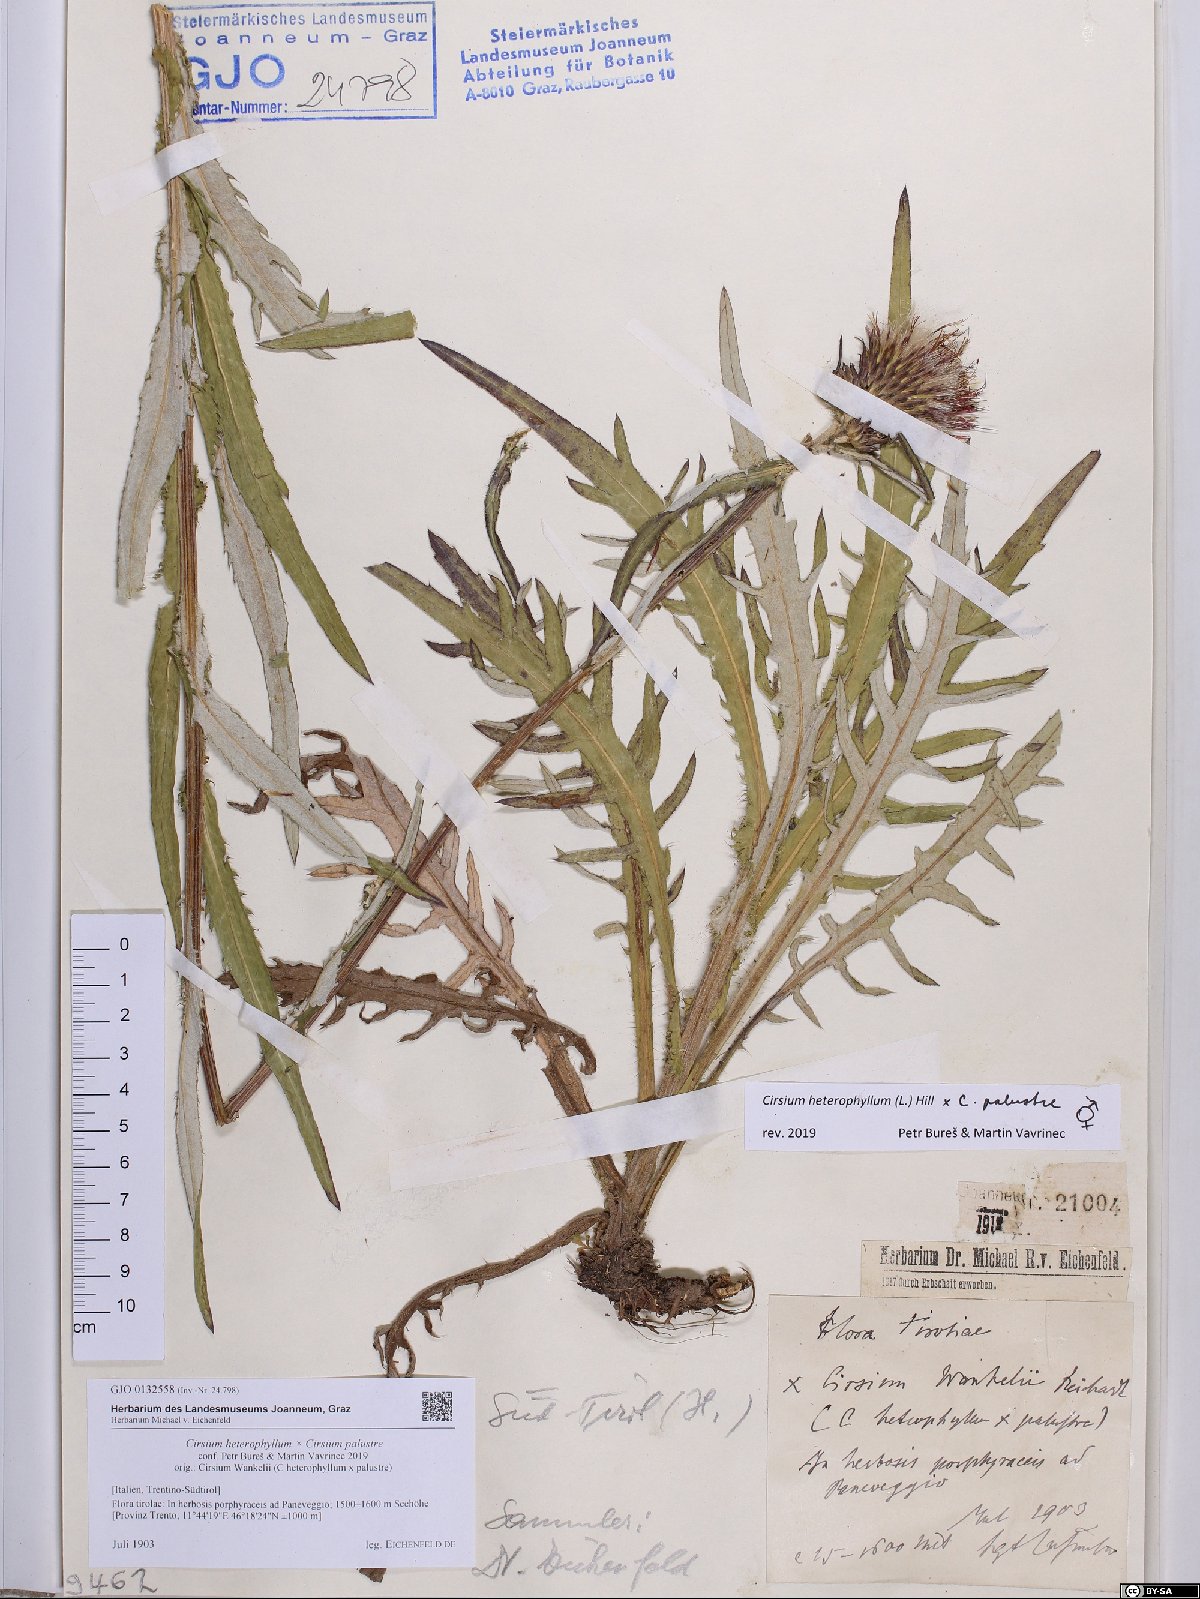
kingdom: Plantae
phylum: Tracheophyta
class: Magnoliopsida
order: Asterales
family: Asteraceae
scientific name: Asteraceae
